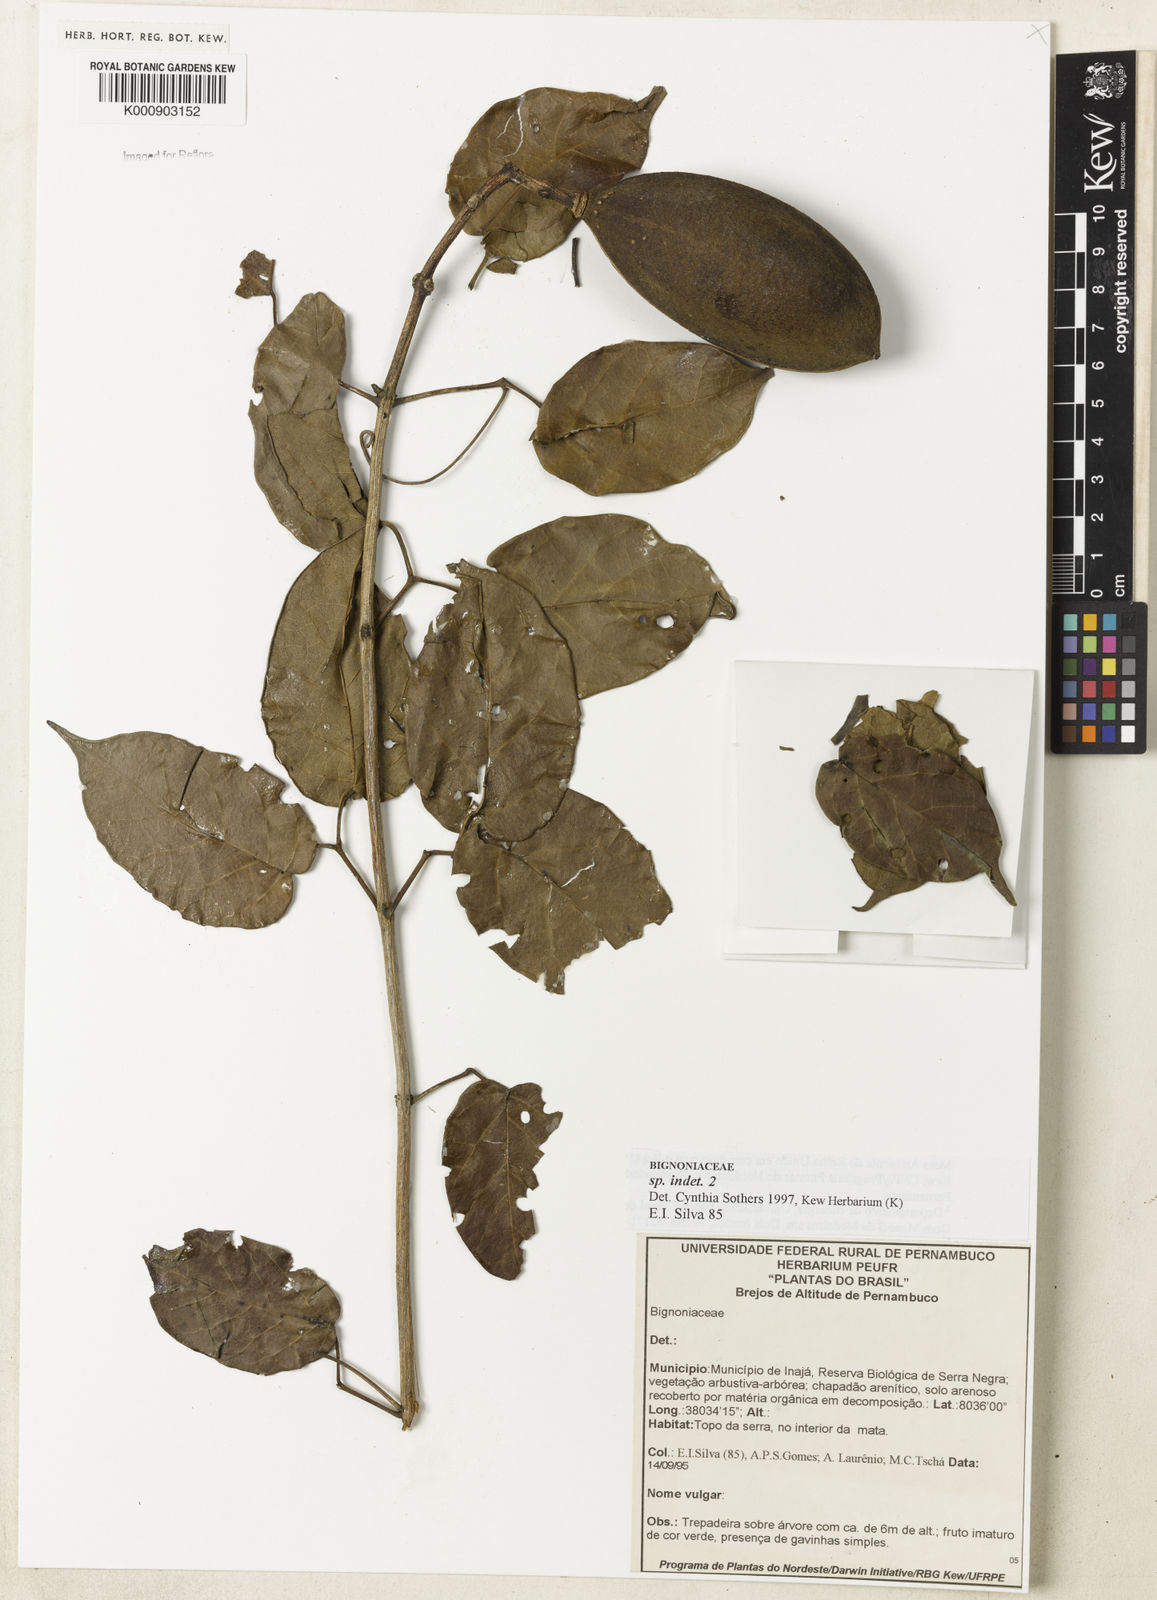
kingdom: Plantae
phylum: Tracheophyta
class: Magnoliopsida
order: Lamiales
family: Bignoniaceae
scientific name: Bignoniaceae
